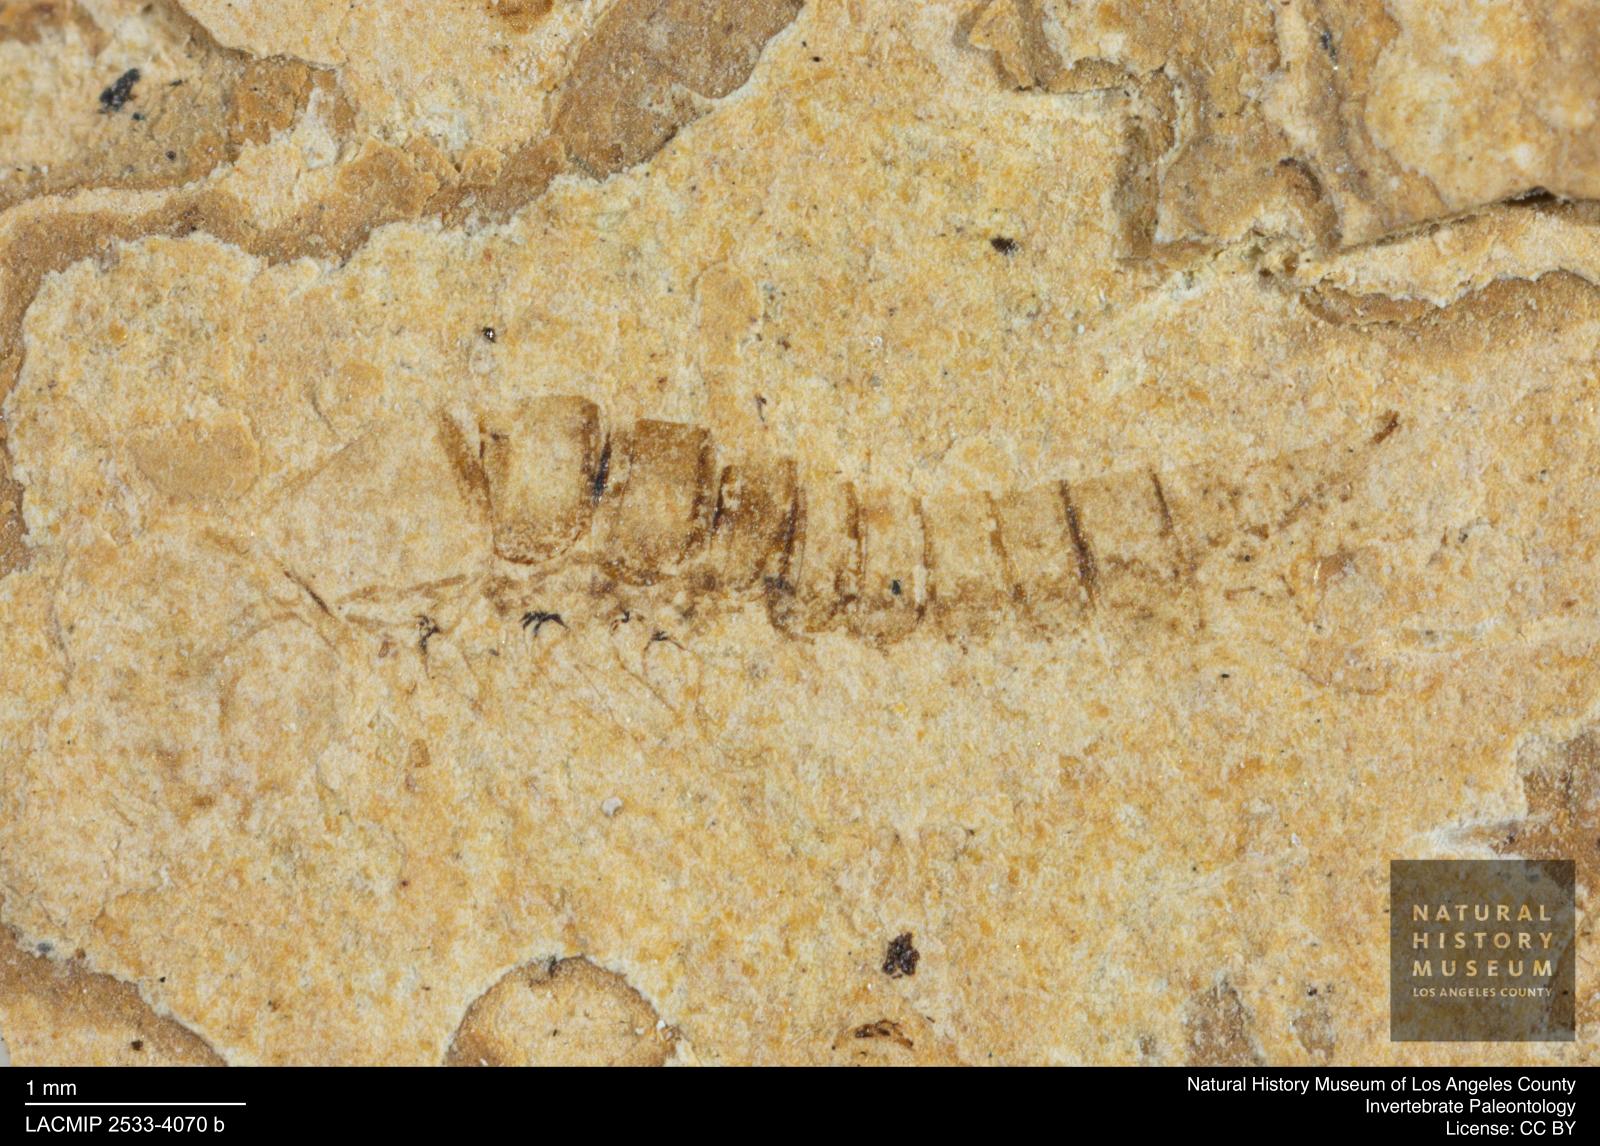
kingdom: Animalia
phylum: Arthropoda
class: Insecta
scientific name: Insecta
